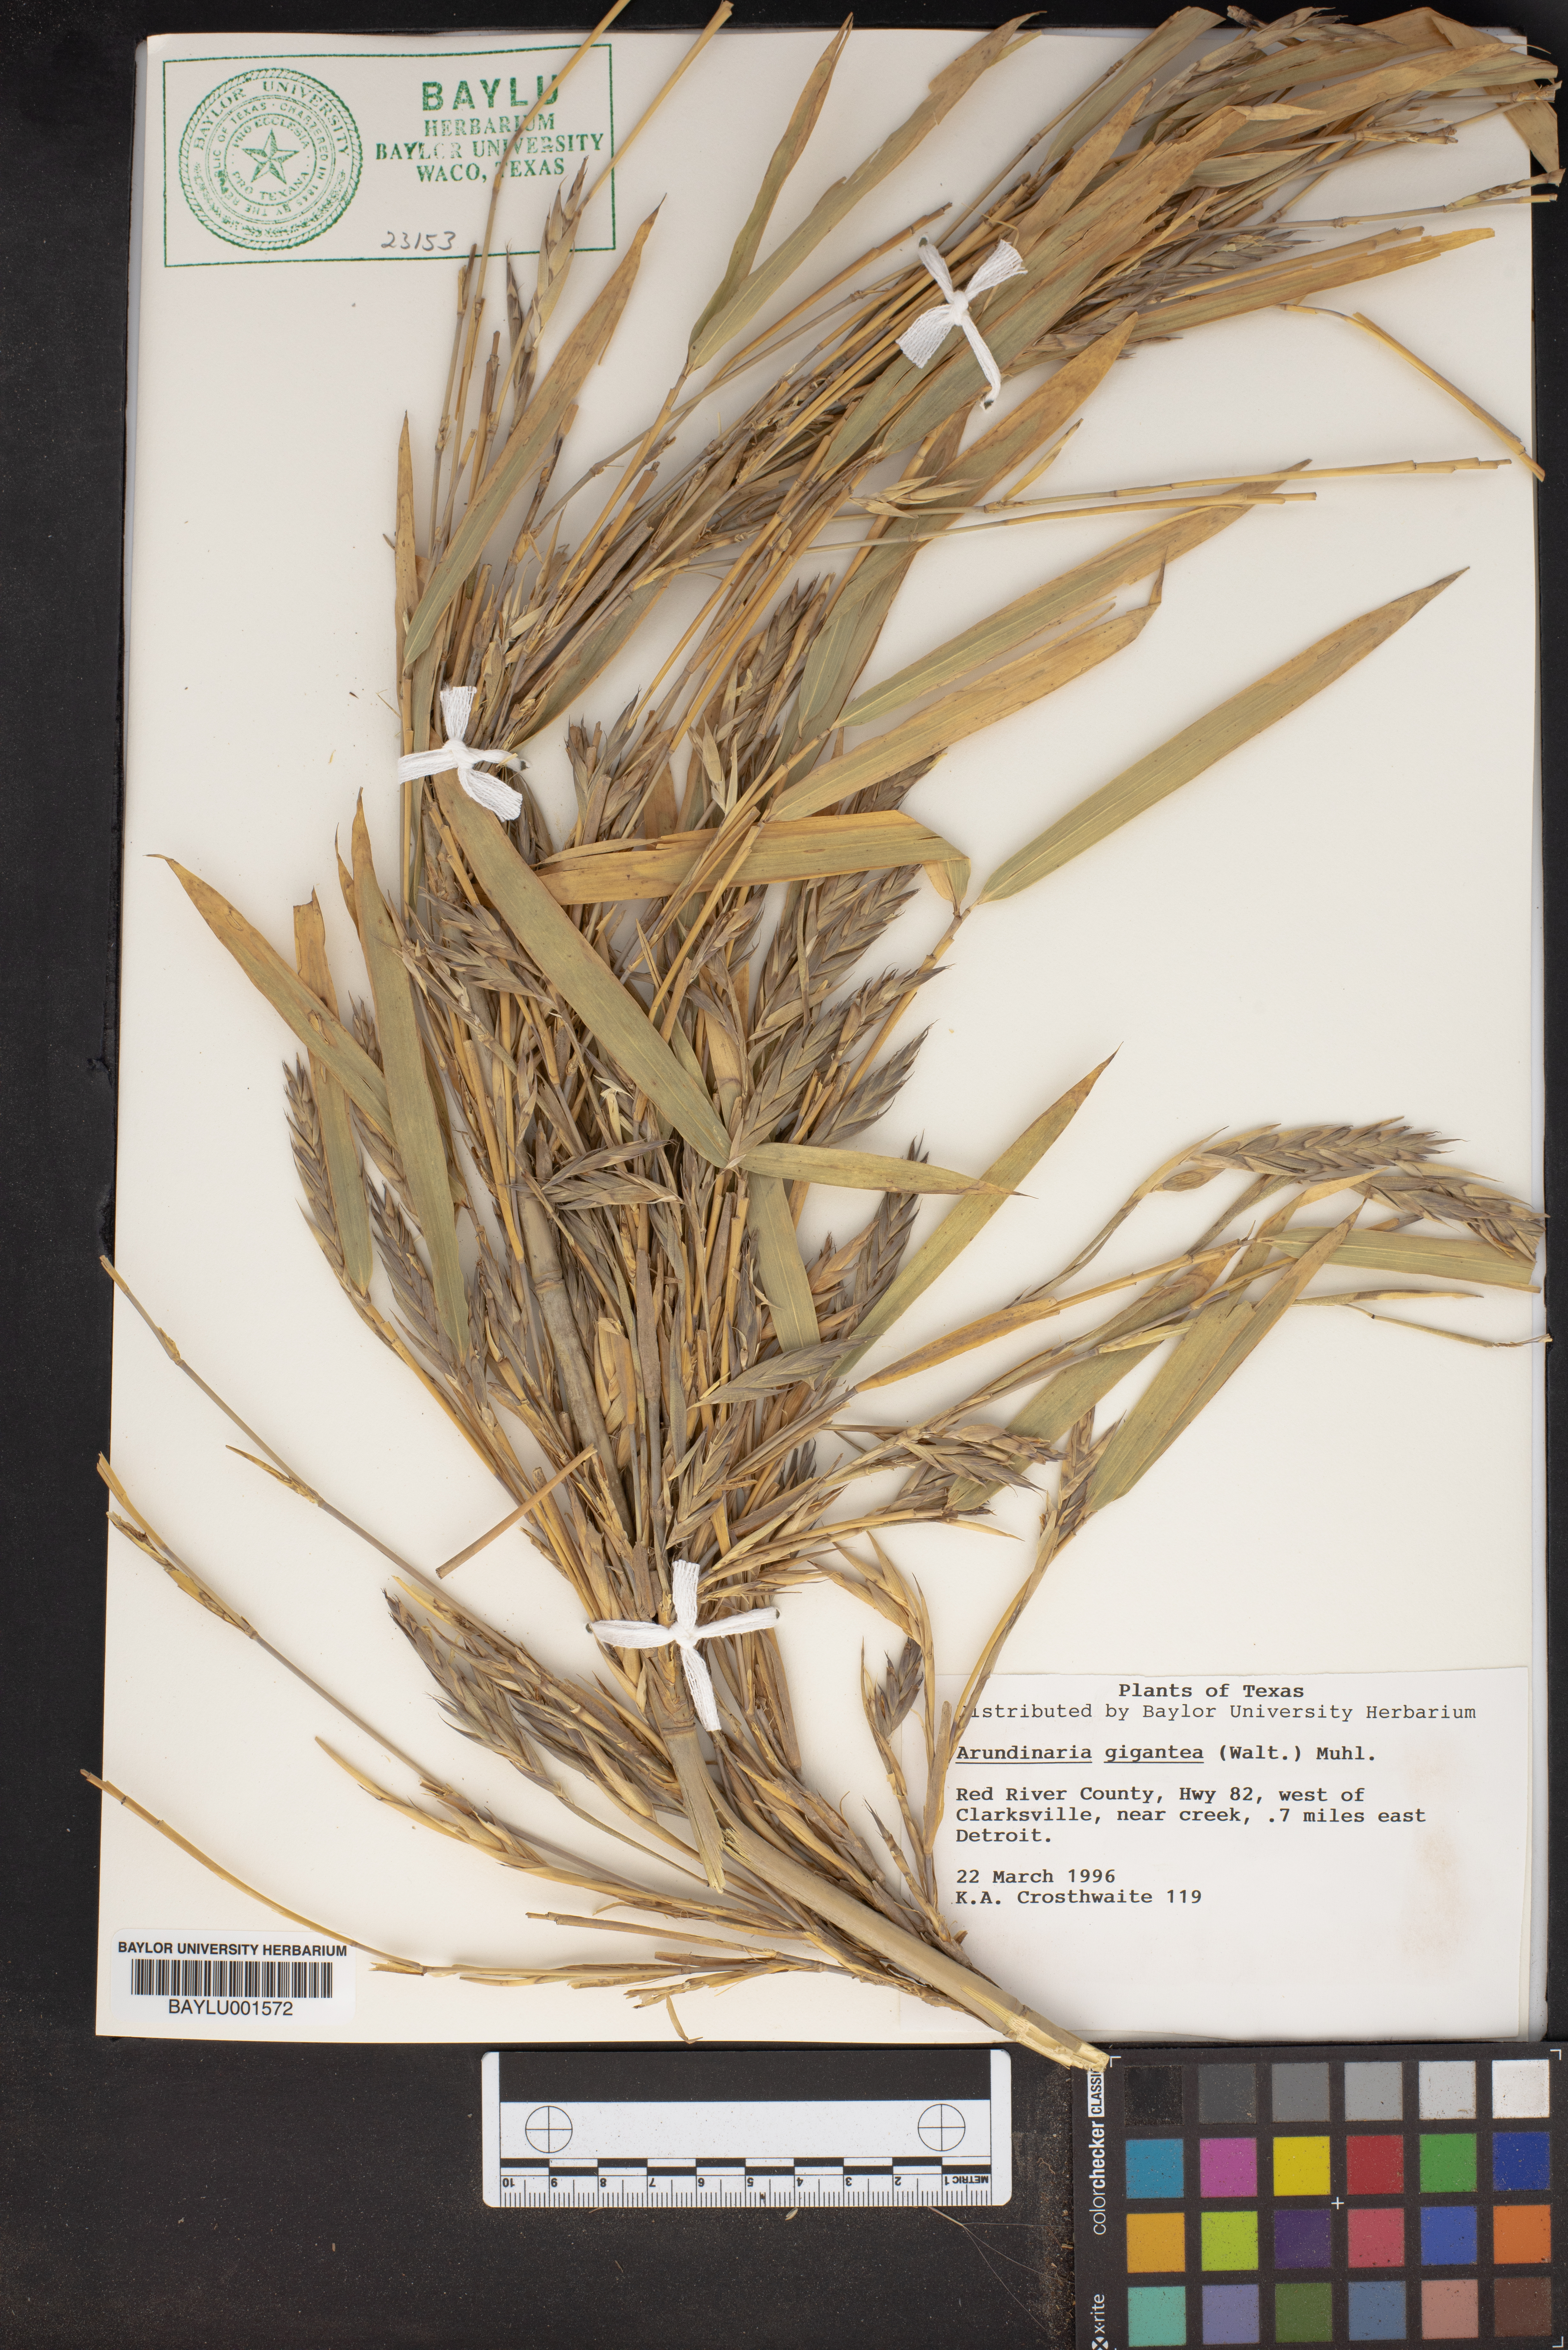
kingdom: Plantae
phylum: Tracheophyta
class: Liliopsida
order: Poales
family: Poaceae
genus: Arundinaria
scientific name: Arundinaria gigantea
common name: Giant cane
